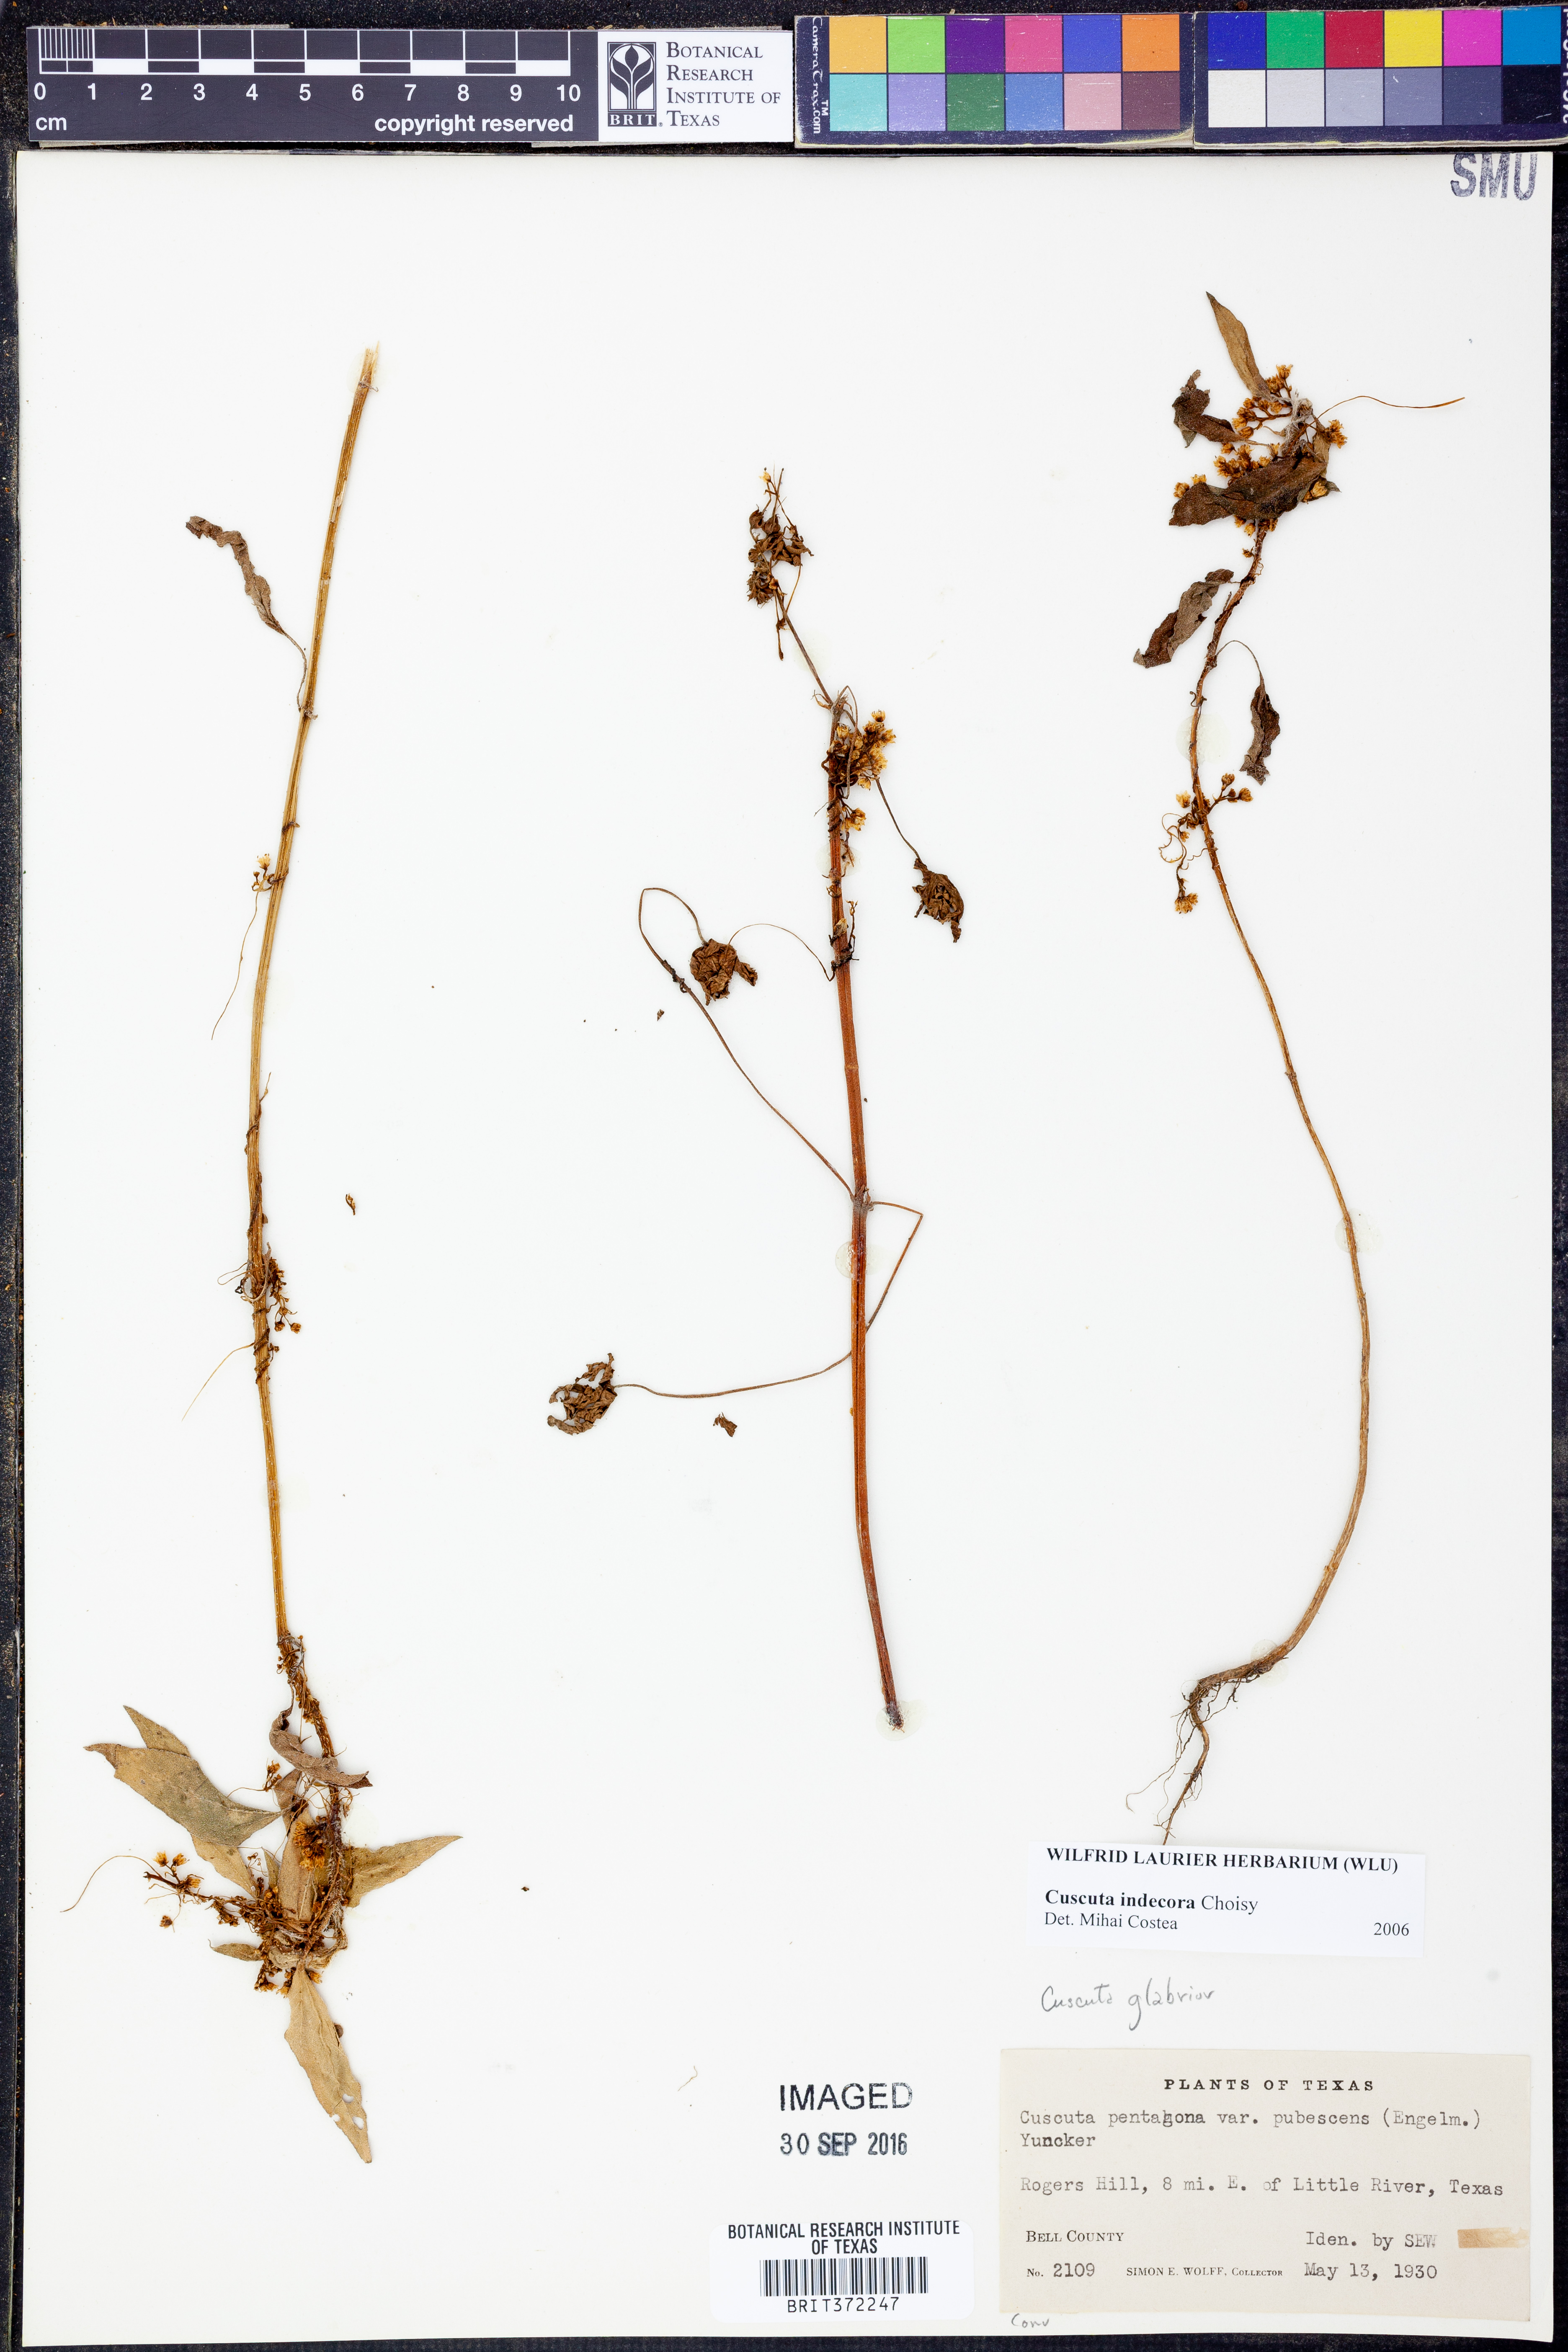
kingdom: Plantae
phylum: Tracheophyta
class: Magnoliopsida
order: Solanales
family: Convolvulaceae
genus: Cuscuta
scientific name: Cuscuta indecora
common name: Large-seed dodder
